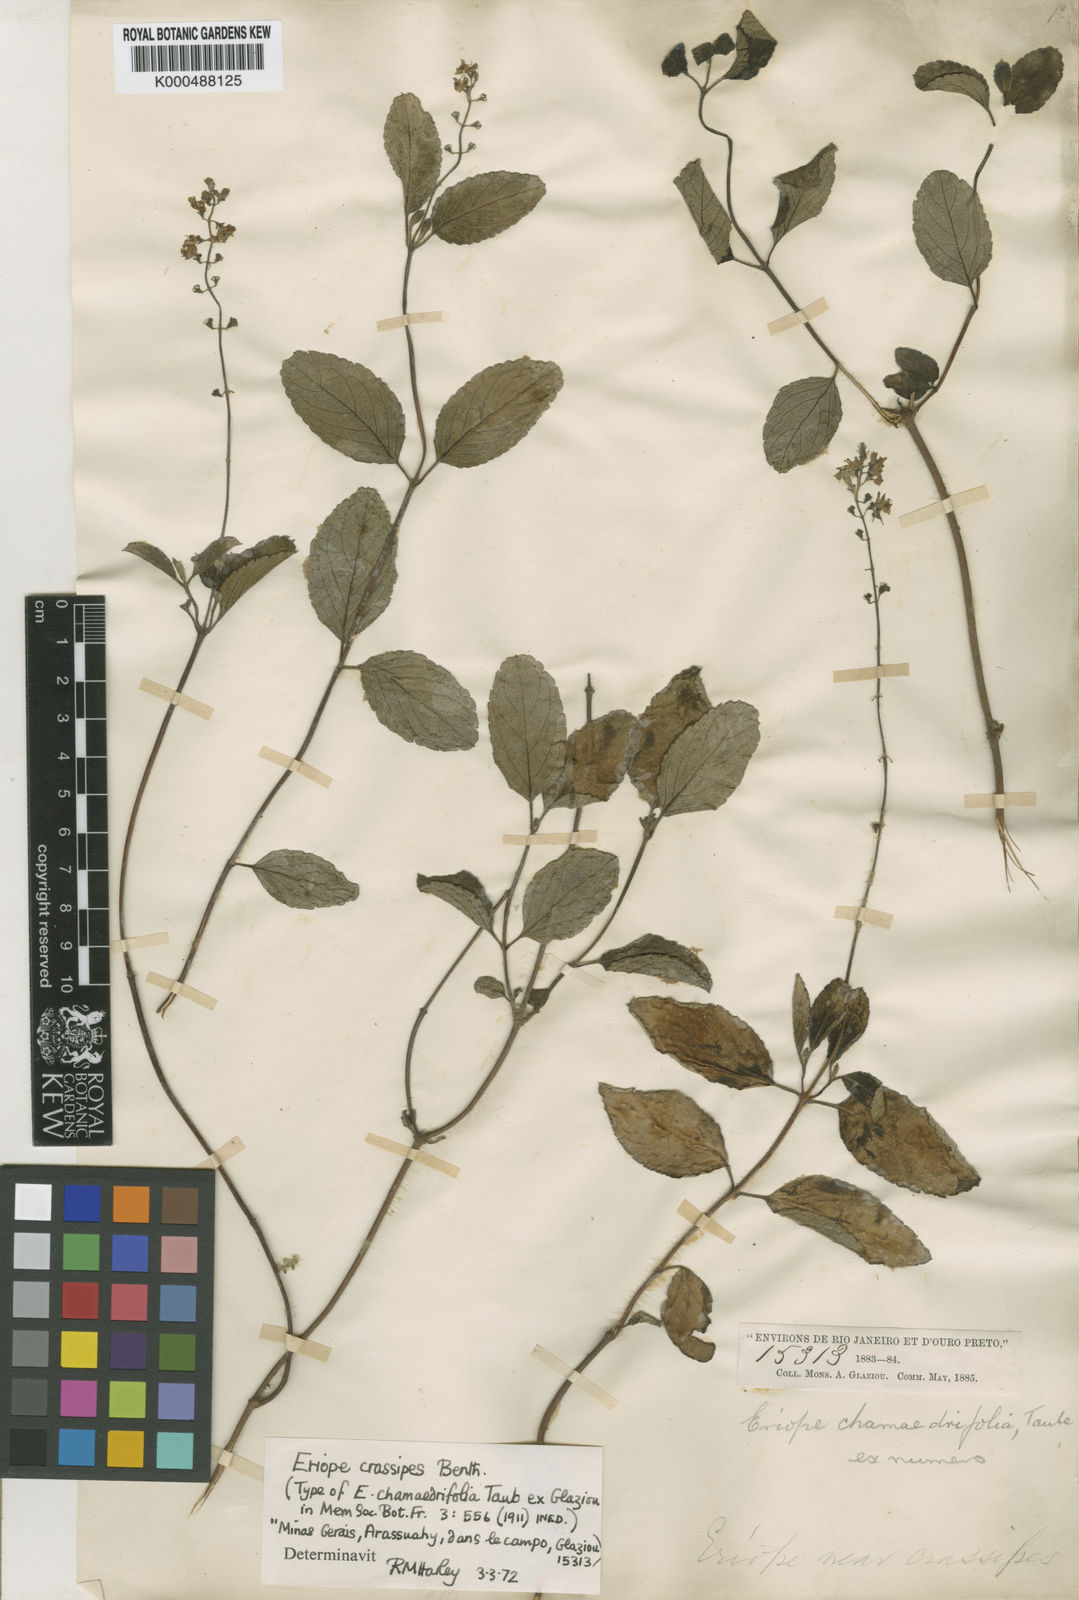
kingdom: Plantae
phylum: Tracheophyta
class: Magnoliopsida
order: Lamiales
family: Lamiaceae
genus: Eriope
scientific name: Eriope crassipes
